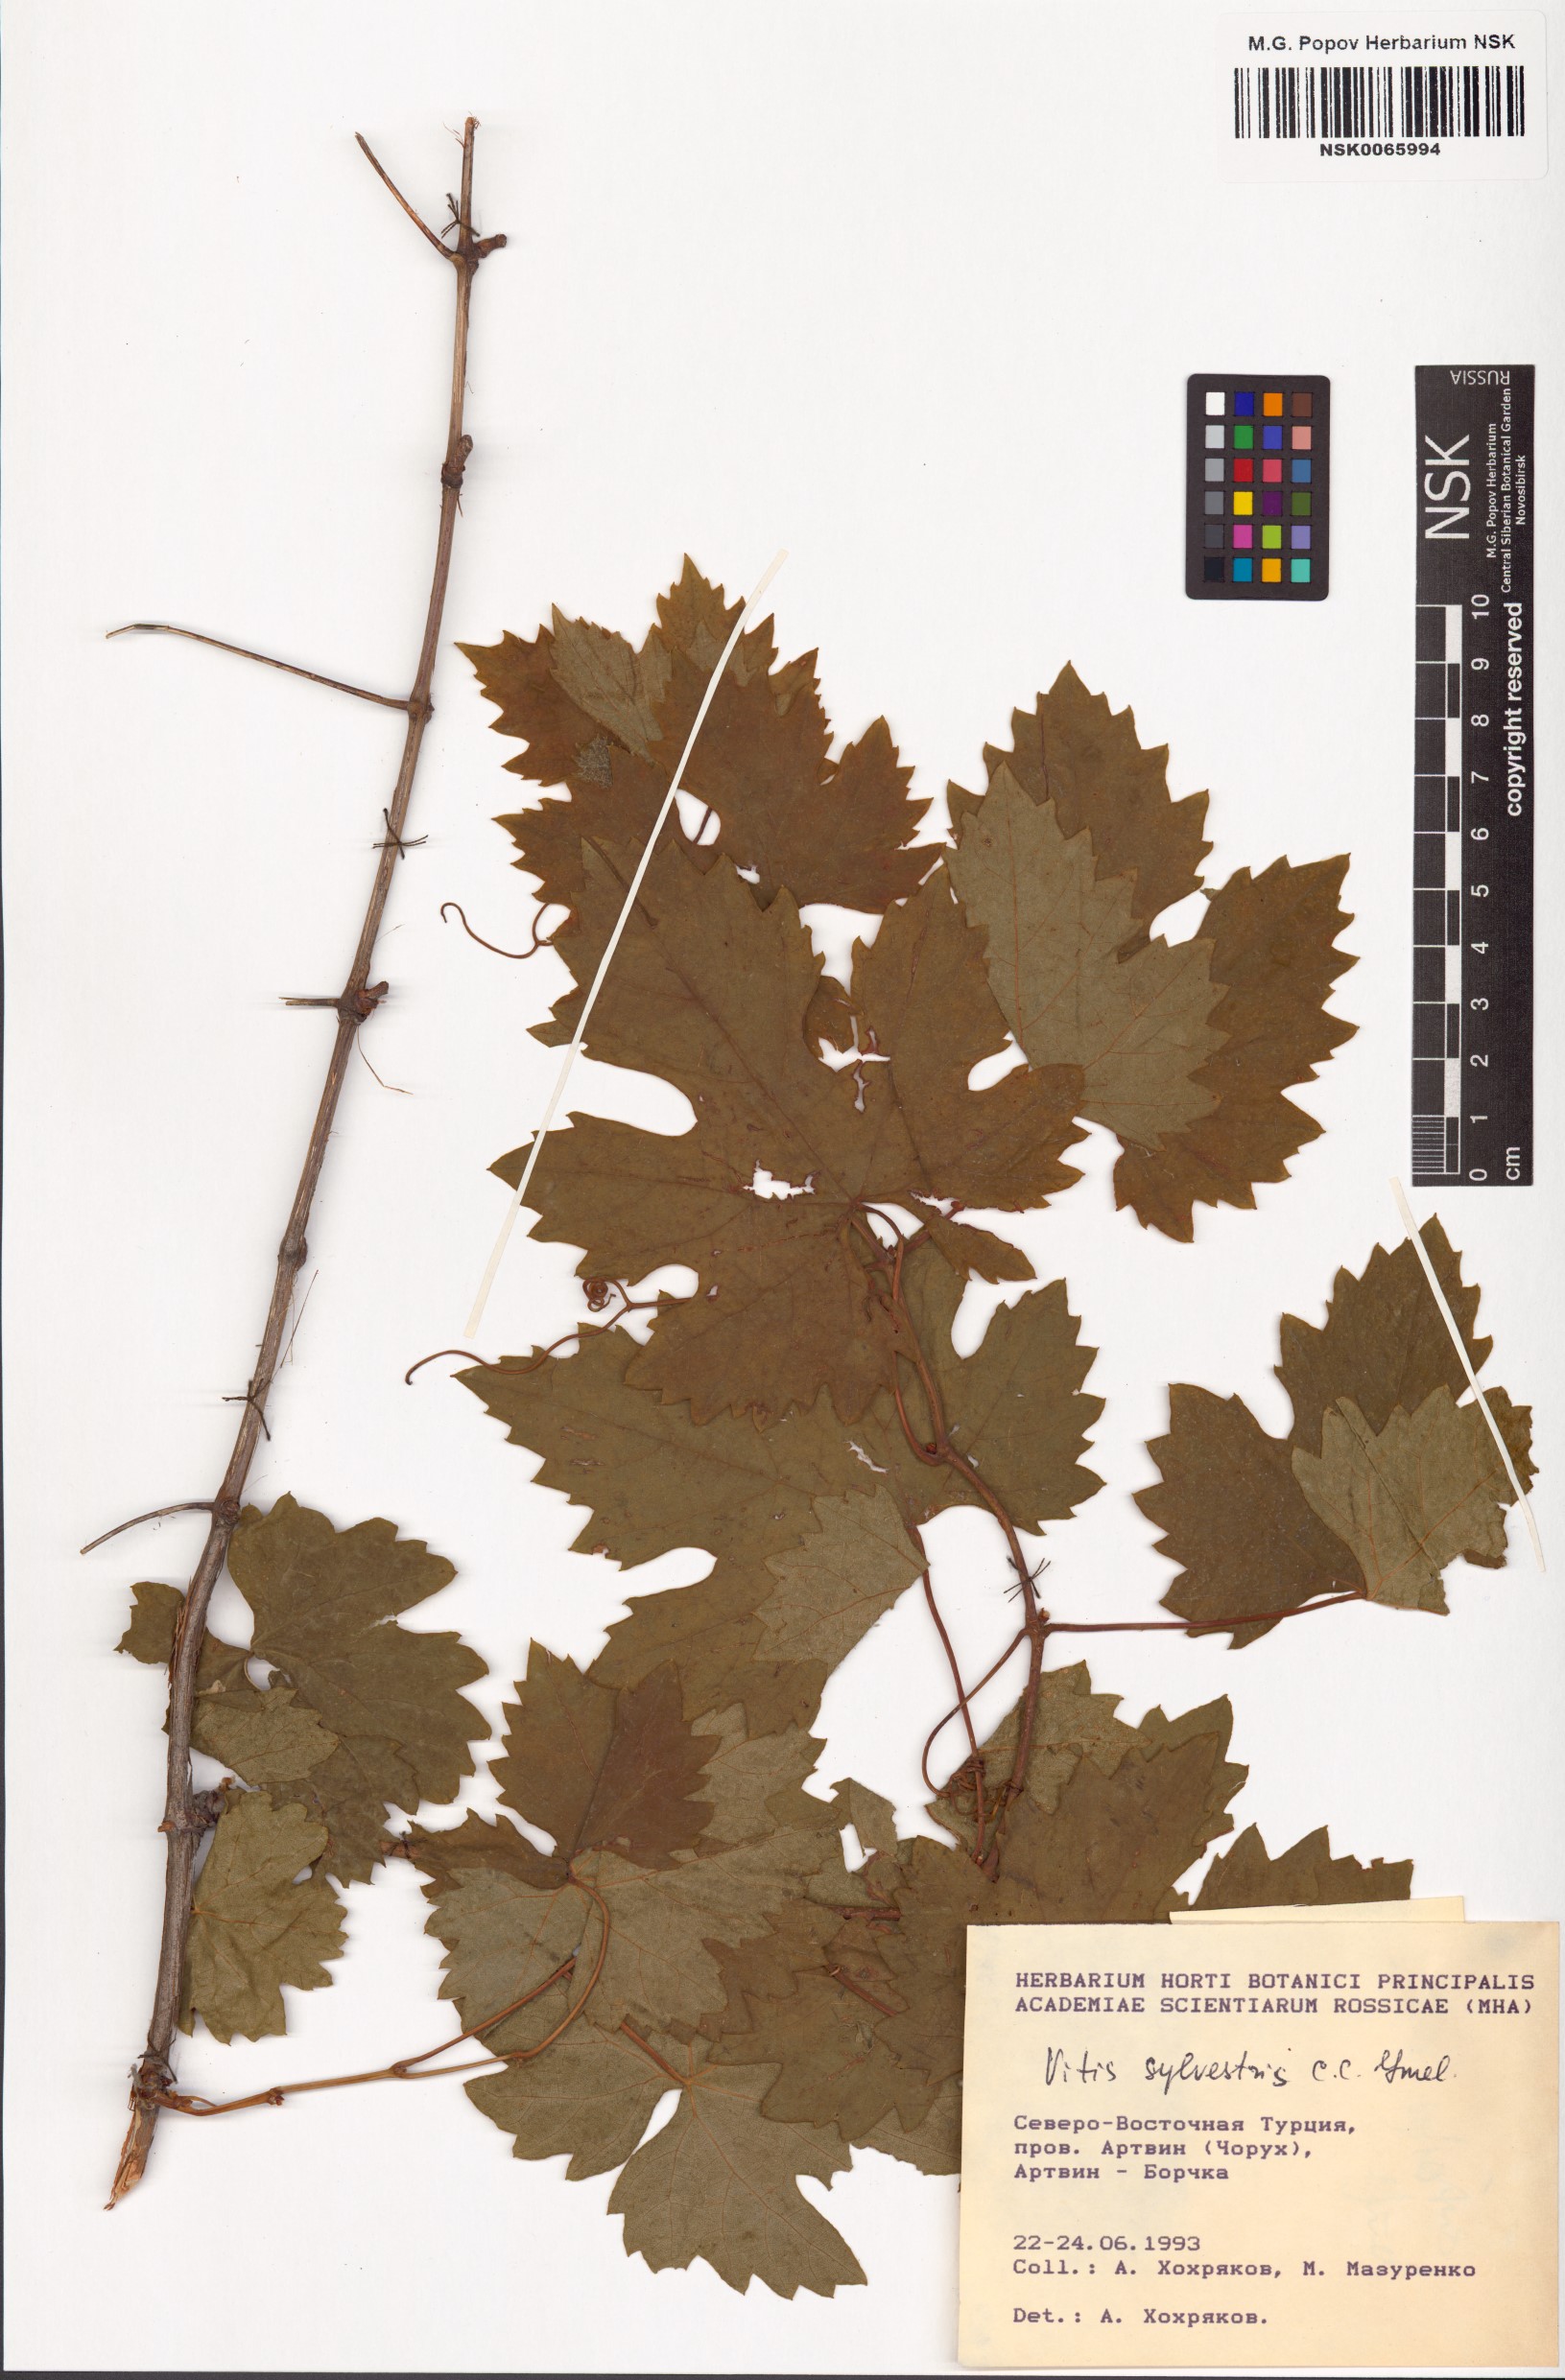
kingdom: Plantae
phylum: Tracheophyta
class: Magnoliopsida
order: Vitales
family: Vitaceae
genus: Vitis
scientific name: Vitis gmelinii
